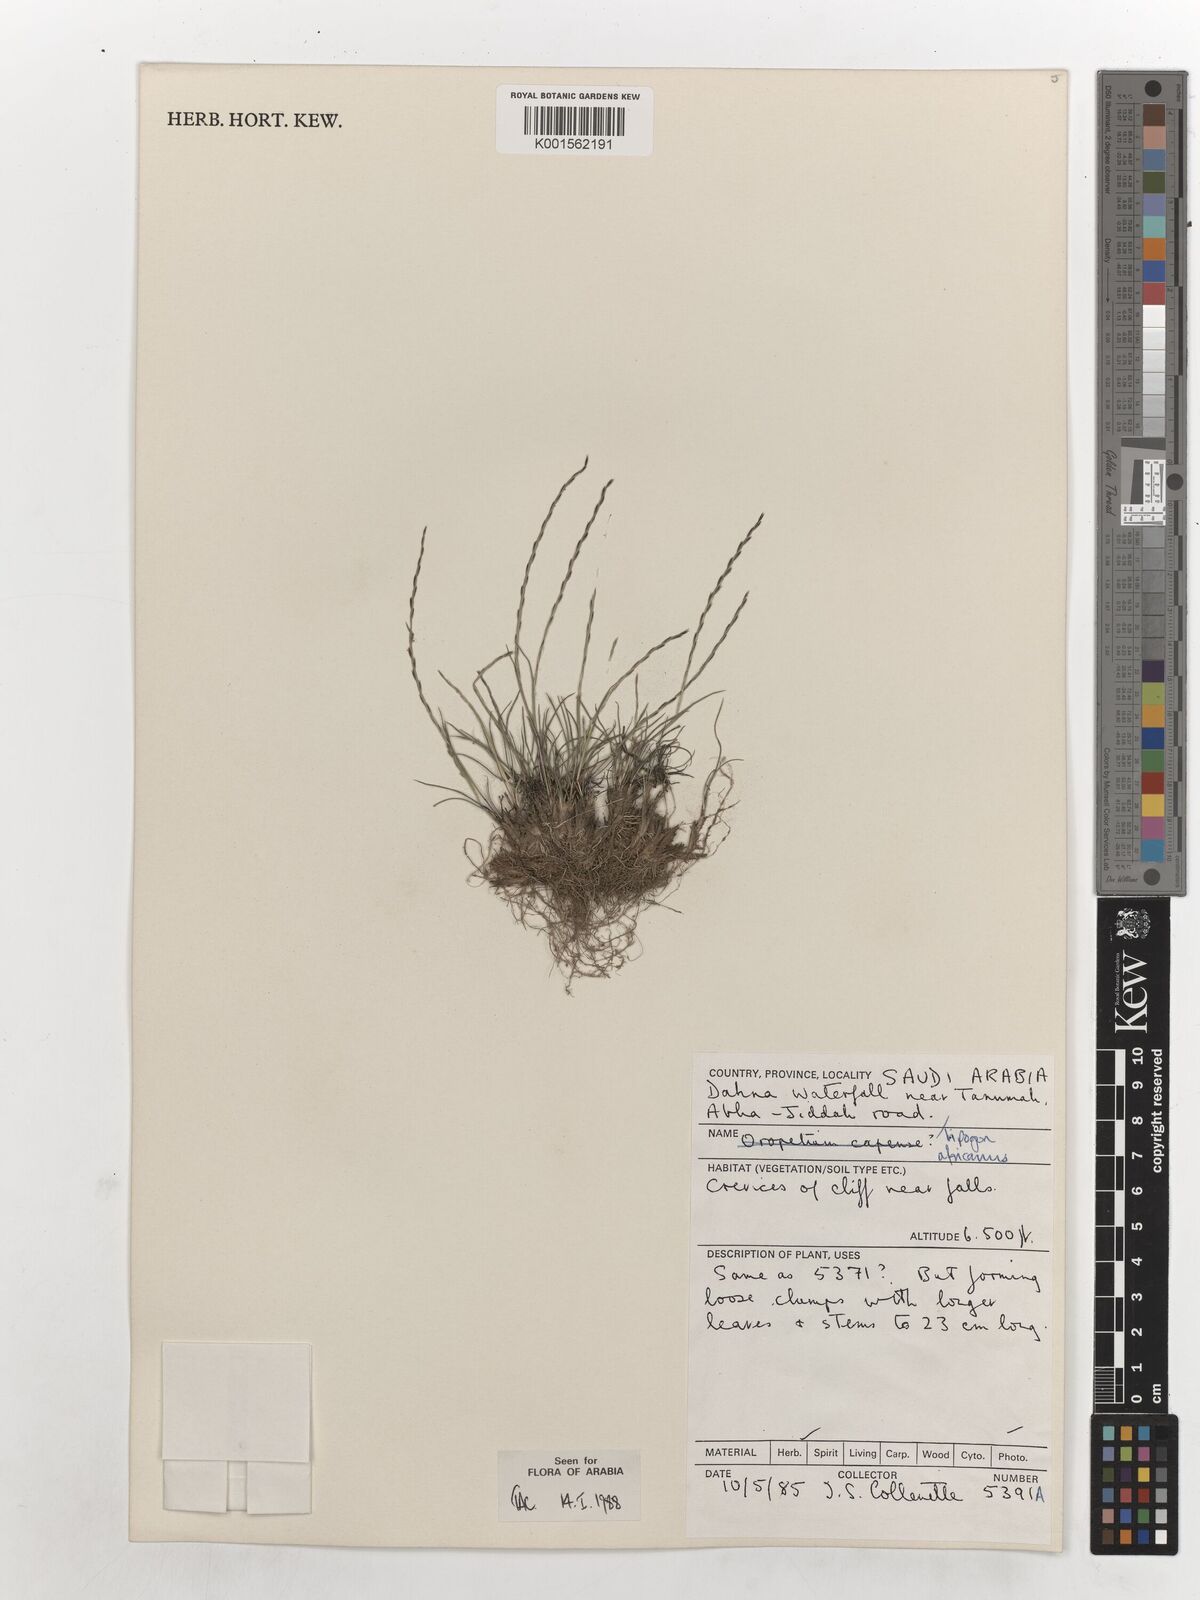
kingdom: Plantae
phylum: Tracheophyta
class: Liliopsida
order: Poales
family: Poaceae
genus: Tripogon
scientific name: Tripogon africanus
